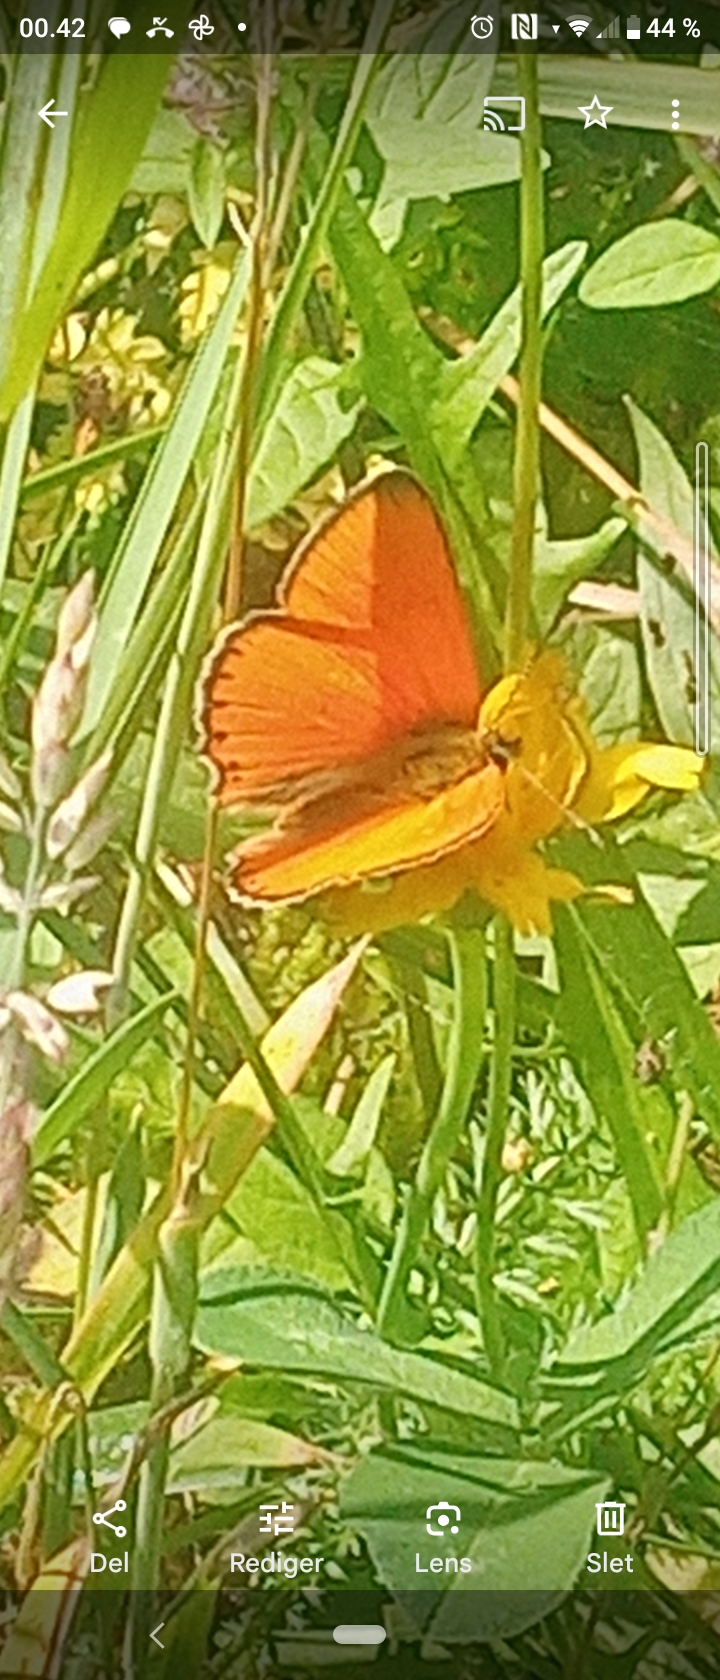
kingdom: Animalia
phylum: Arthropoda
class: Insecta
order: Lepidoptera
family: Lycaenidae
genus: Lycaena
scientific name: Lycaena virgaureae
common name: Dukatsommerfugl
